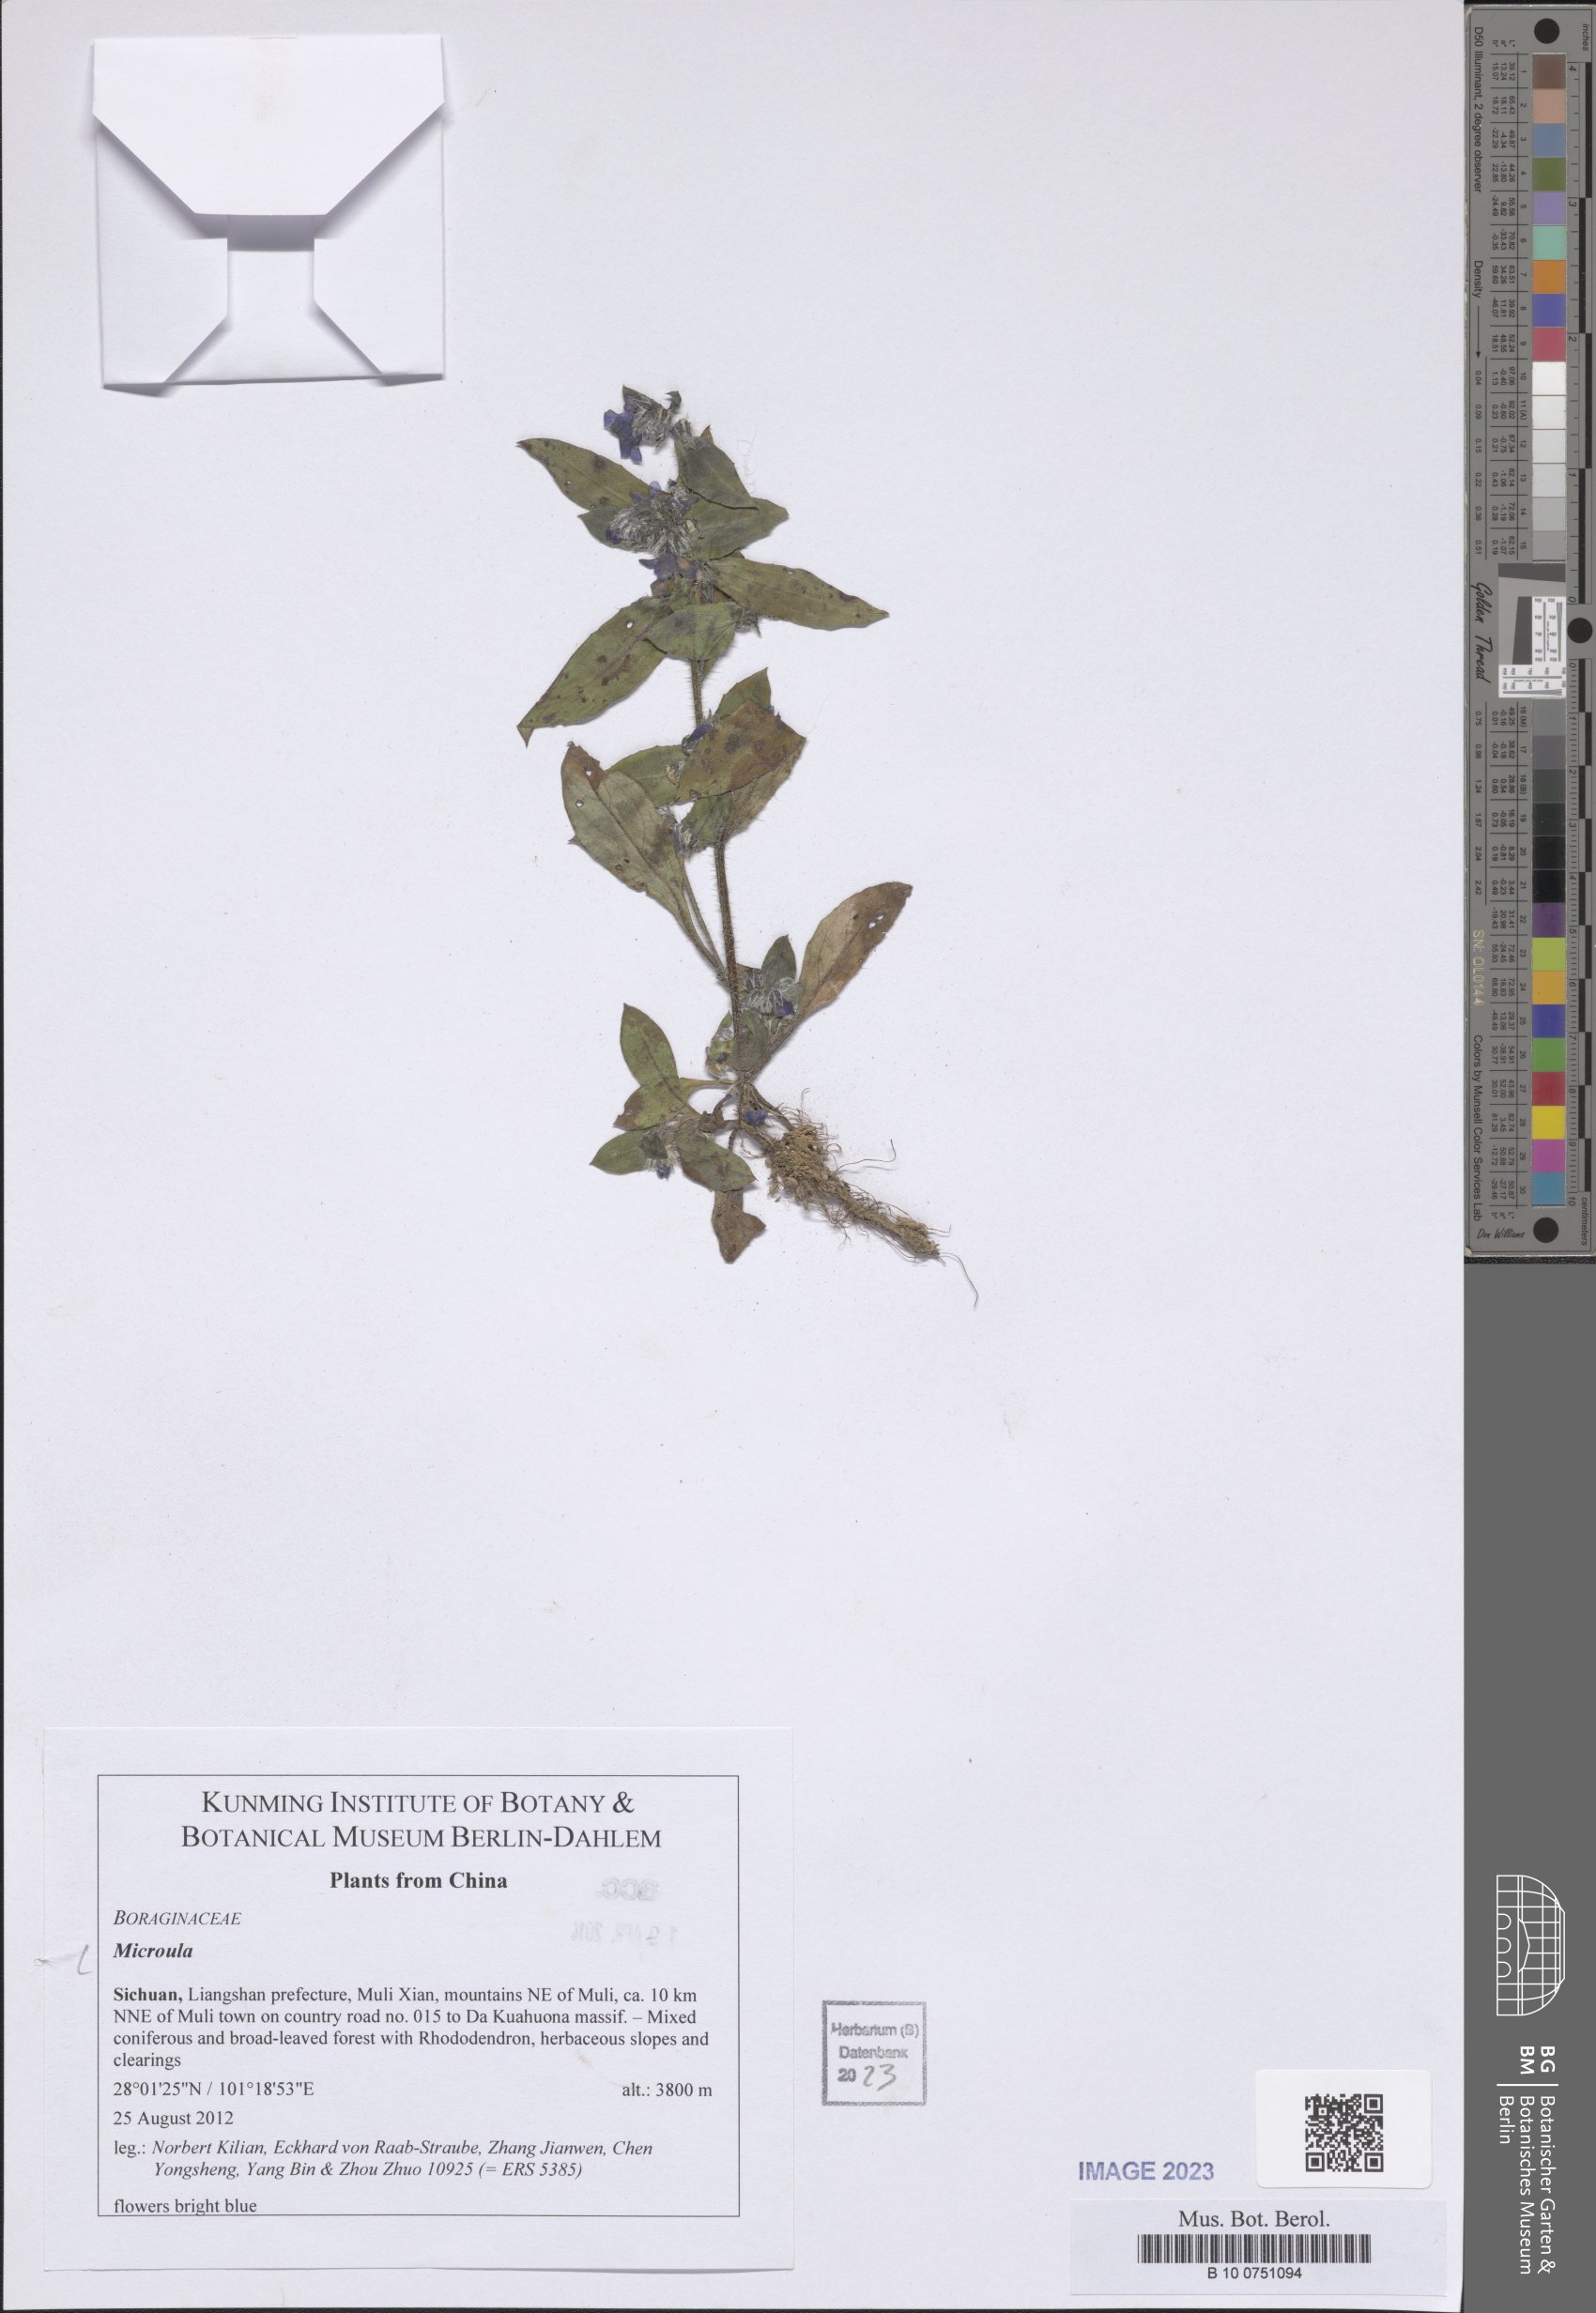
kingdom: Plantae
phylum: Tracheophyta
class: Magnoliopsida
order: Boraginales
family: Boraginaceae
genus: Microula
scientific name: Microula
